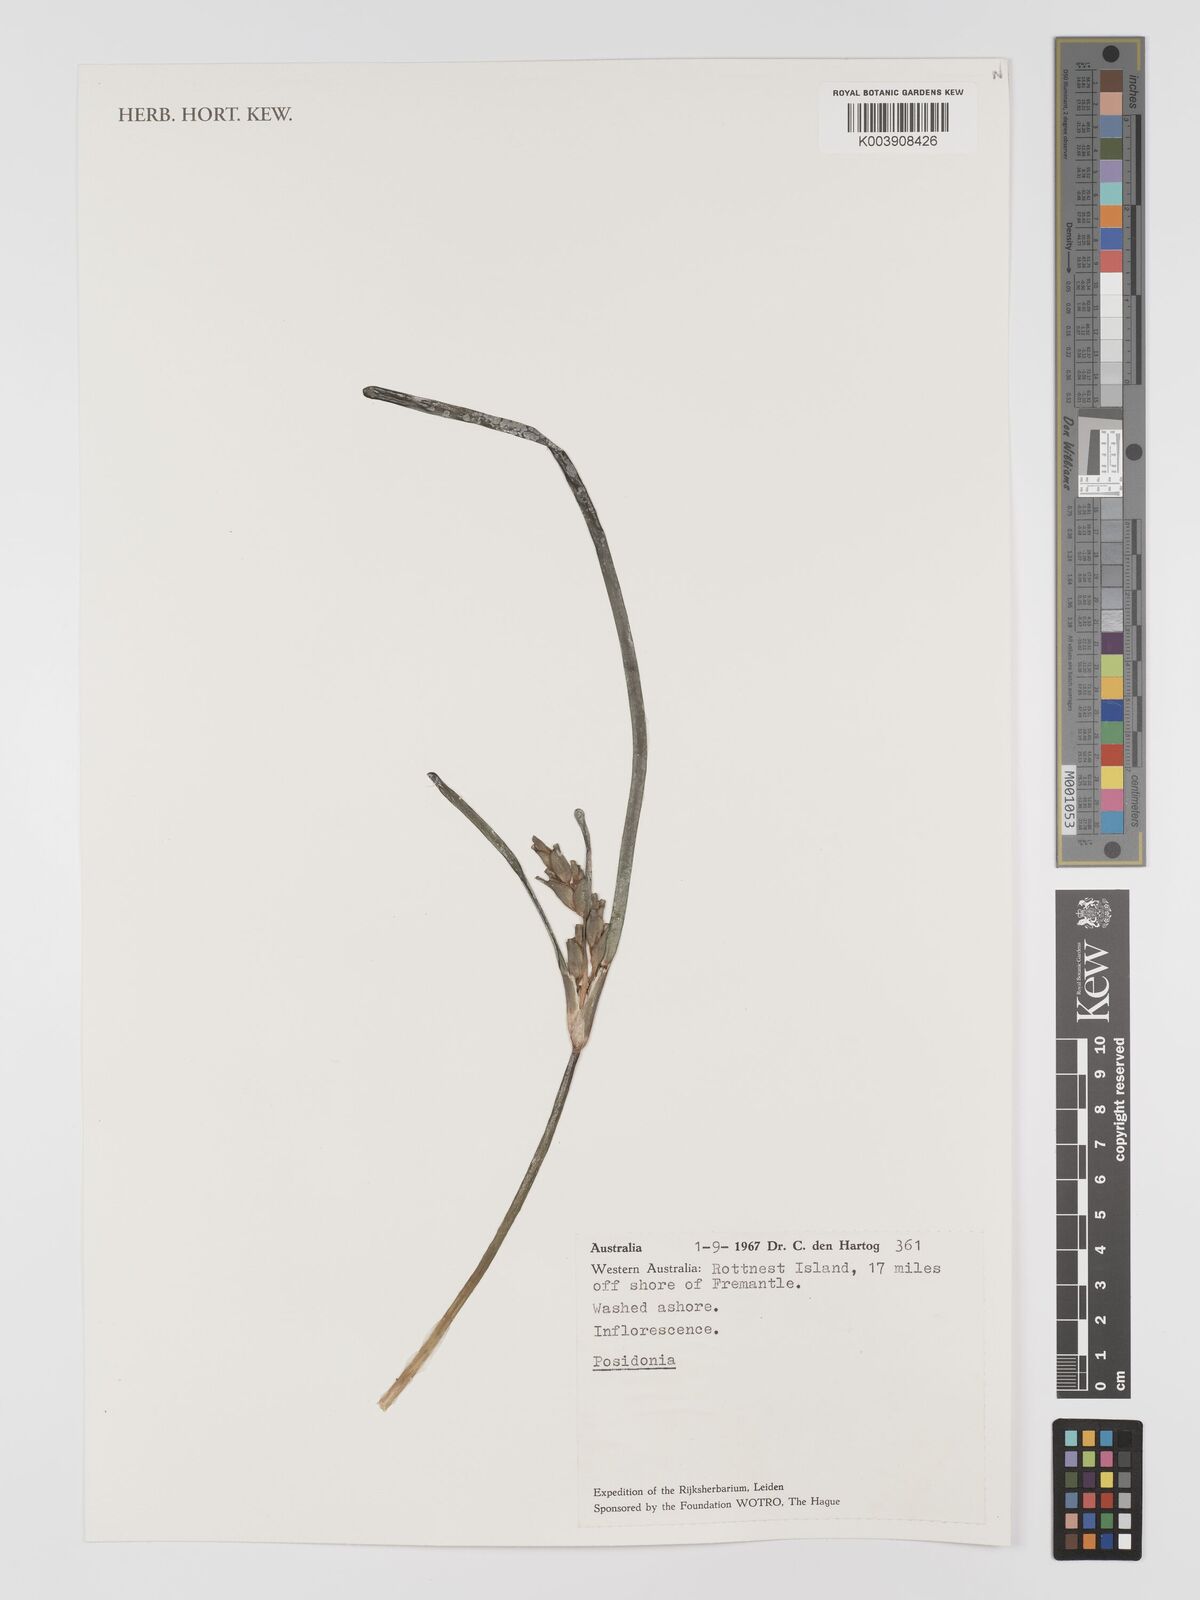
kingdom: Plantae
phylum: Tracheophyta
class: Liliopsida
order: Alismatales
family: Posidoniaceae
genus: Posidonia
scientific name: Posidonia australis
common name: Species code: pa
